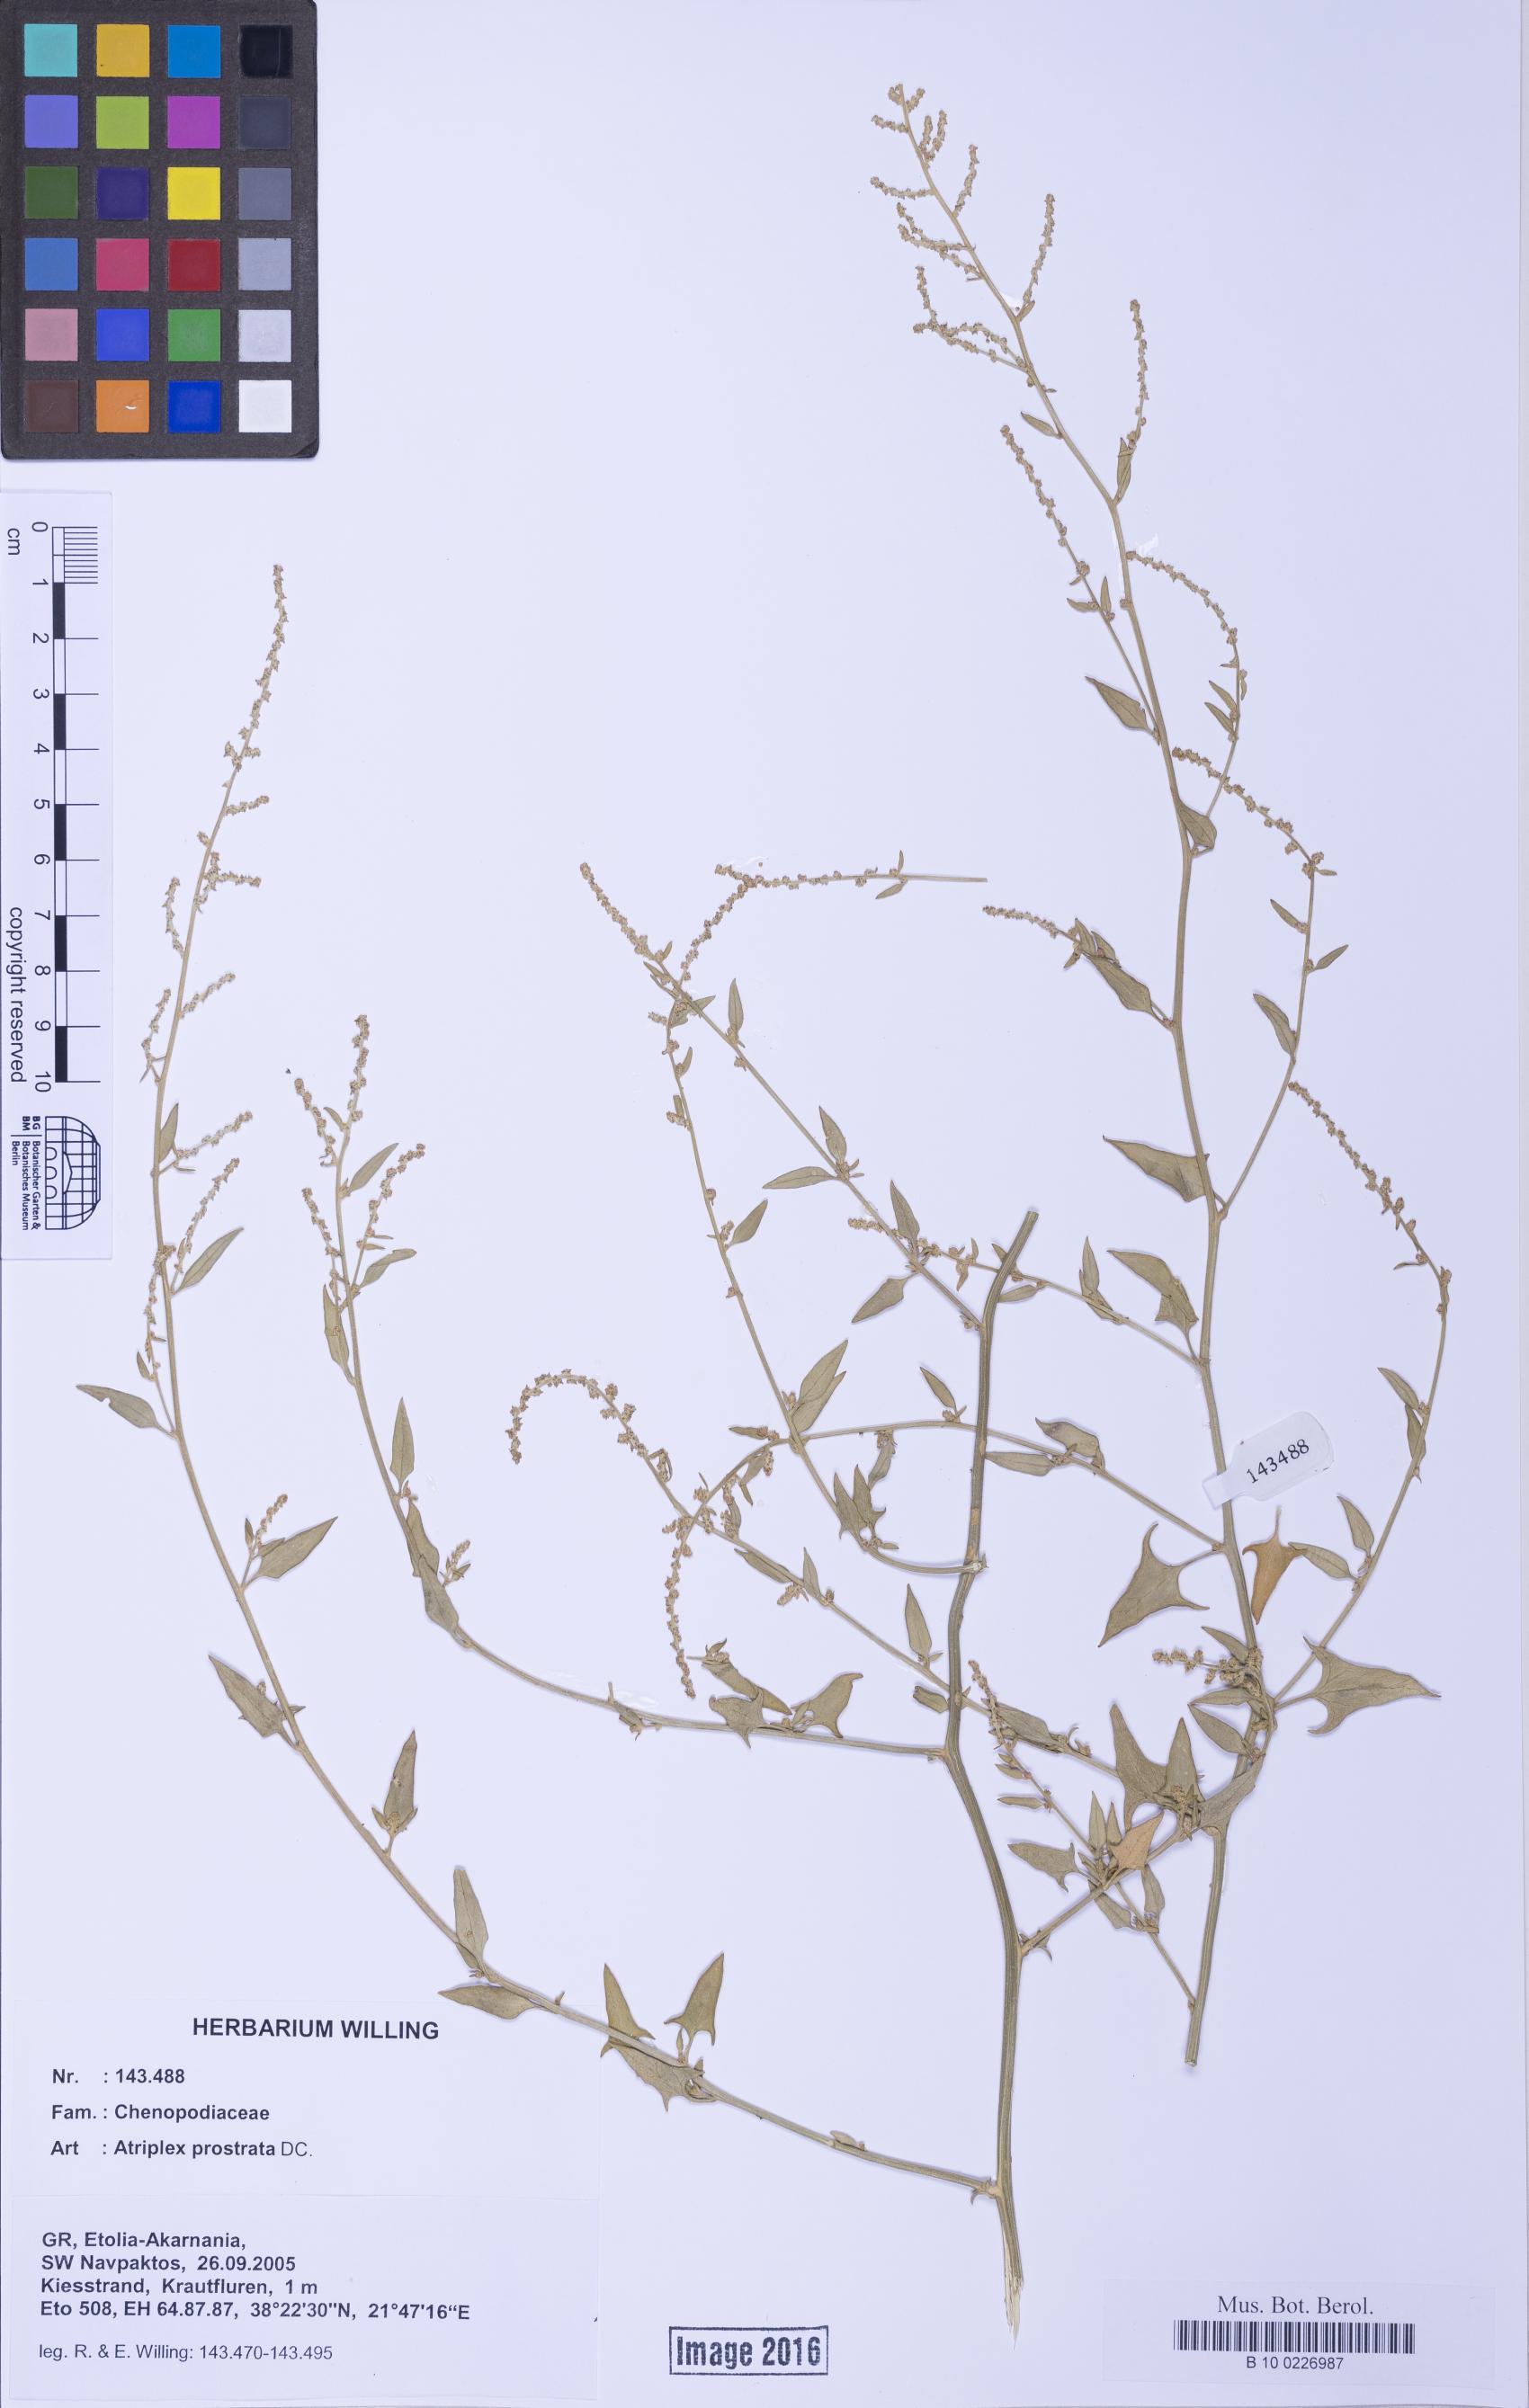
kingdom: Plantae
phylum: Tracheophyta
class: Magnoliopsida
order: Caryophyllales
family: Amaranthaceae
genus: Atriplex
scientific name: Atriplex prostrata
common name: Spear-leaved orache
